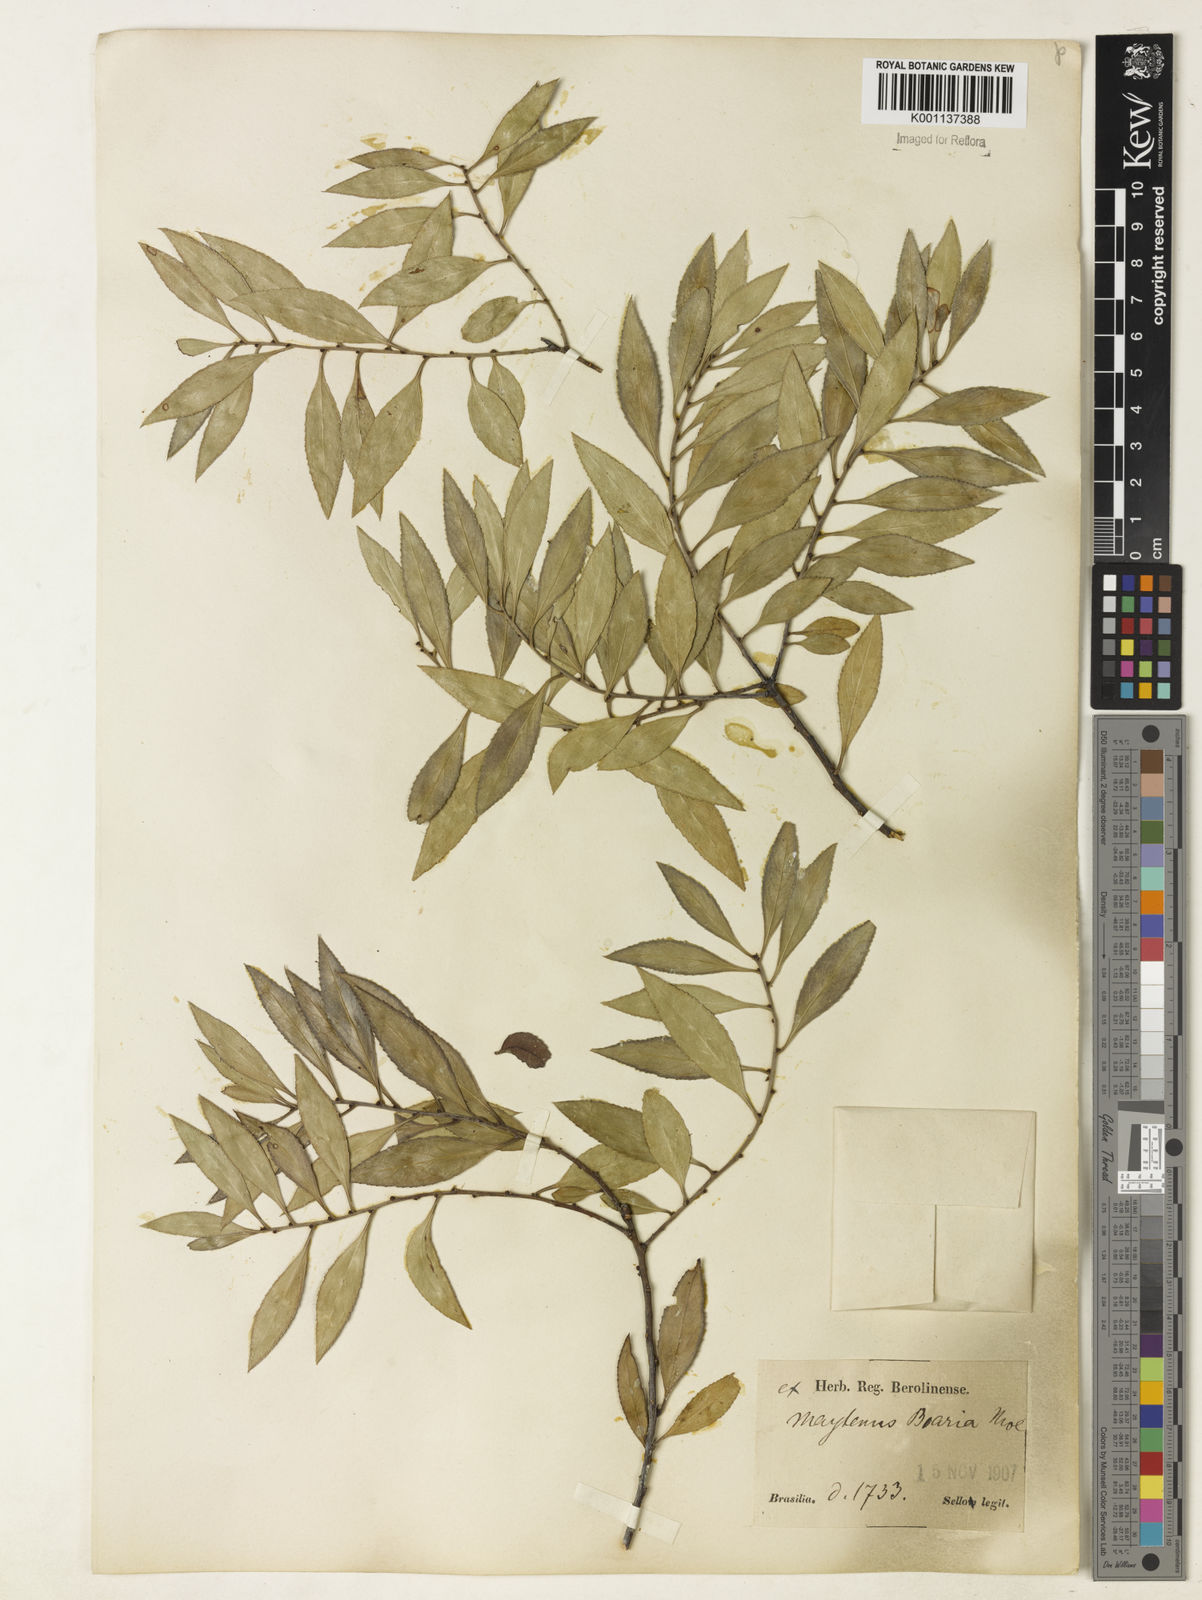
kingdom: Plantae
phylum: Tracheophyta
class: Magnoliopsida
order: Celastrales
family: Celastraceae
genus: Maytenus
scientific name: Maytenus boaria
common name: Mayten
